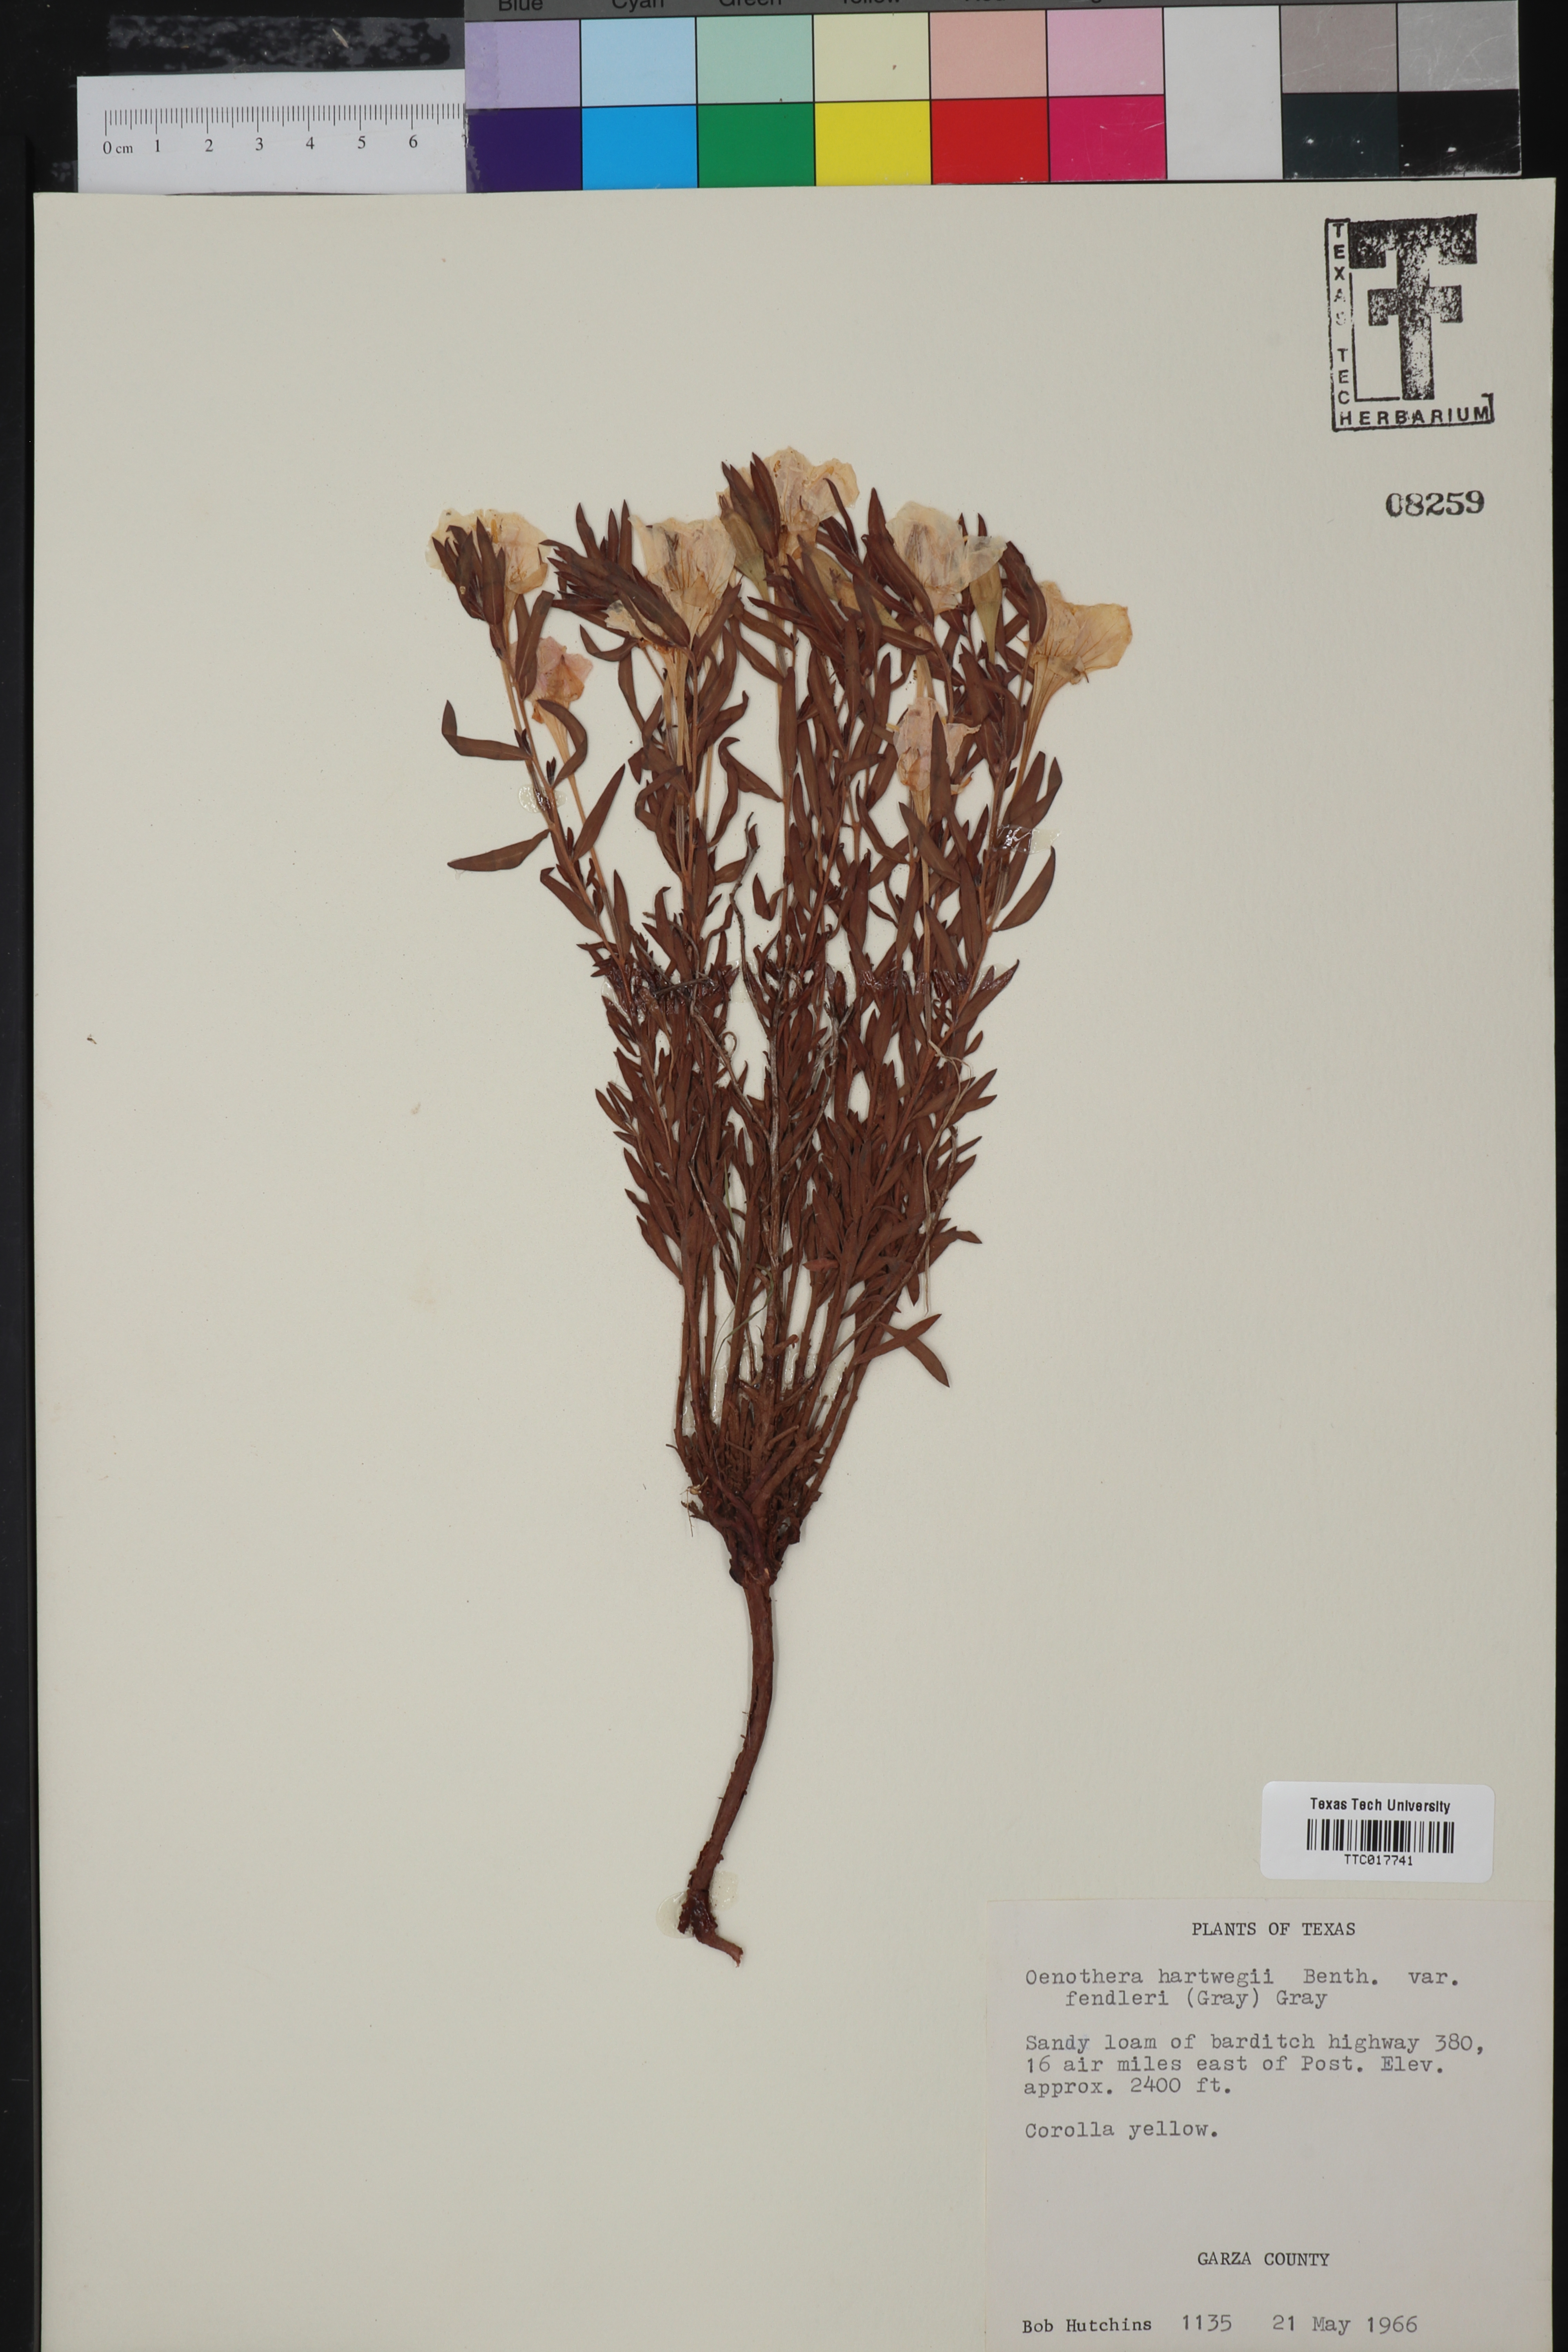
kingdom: Plantae
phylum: Tracheophyta
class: Magnoliopsida
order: Myrtales
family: Onagraceae
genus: Oenothera
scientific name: Oenothera hartwegii
